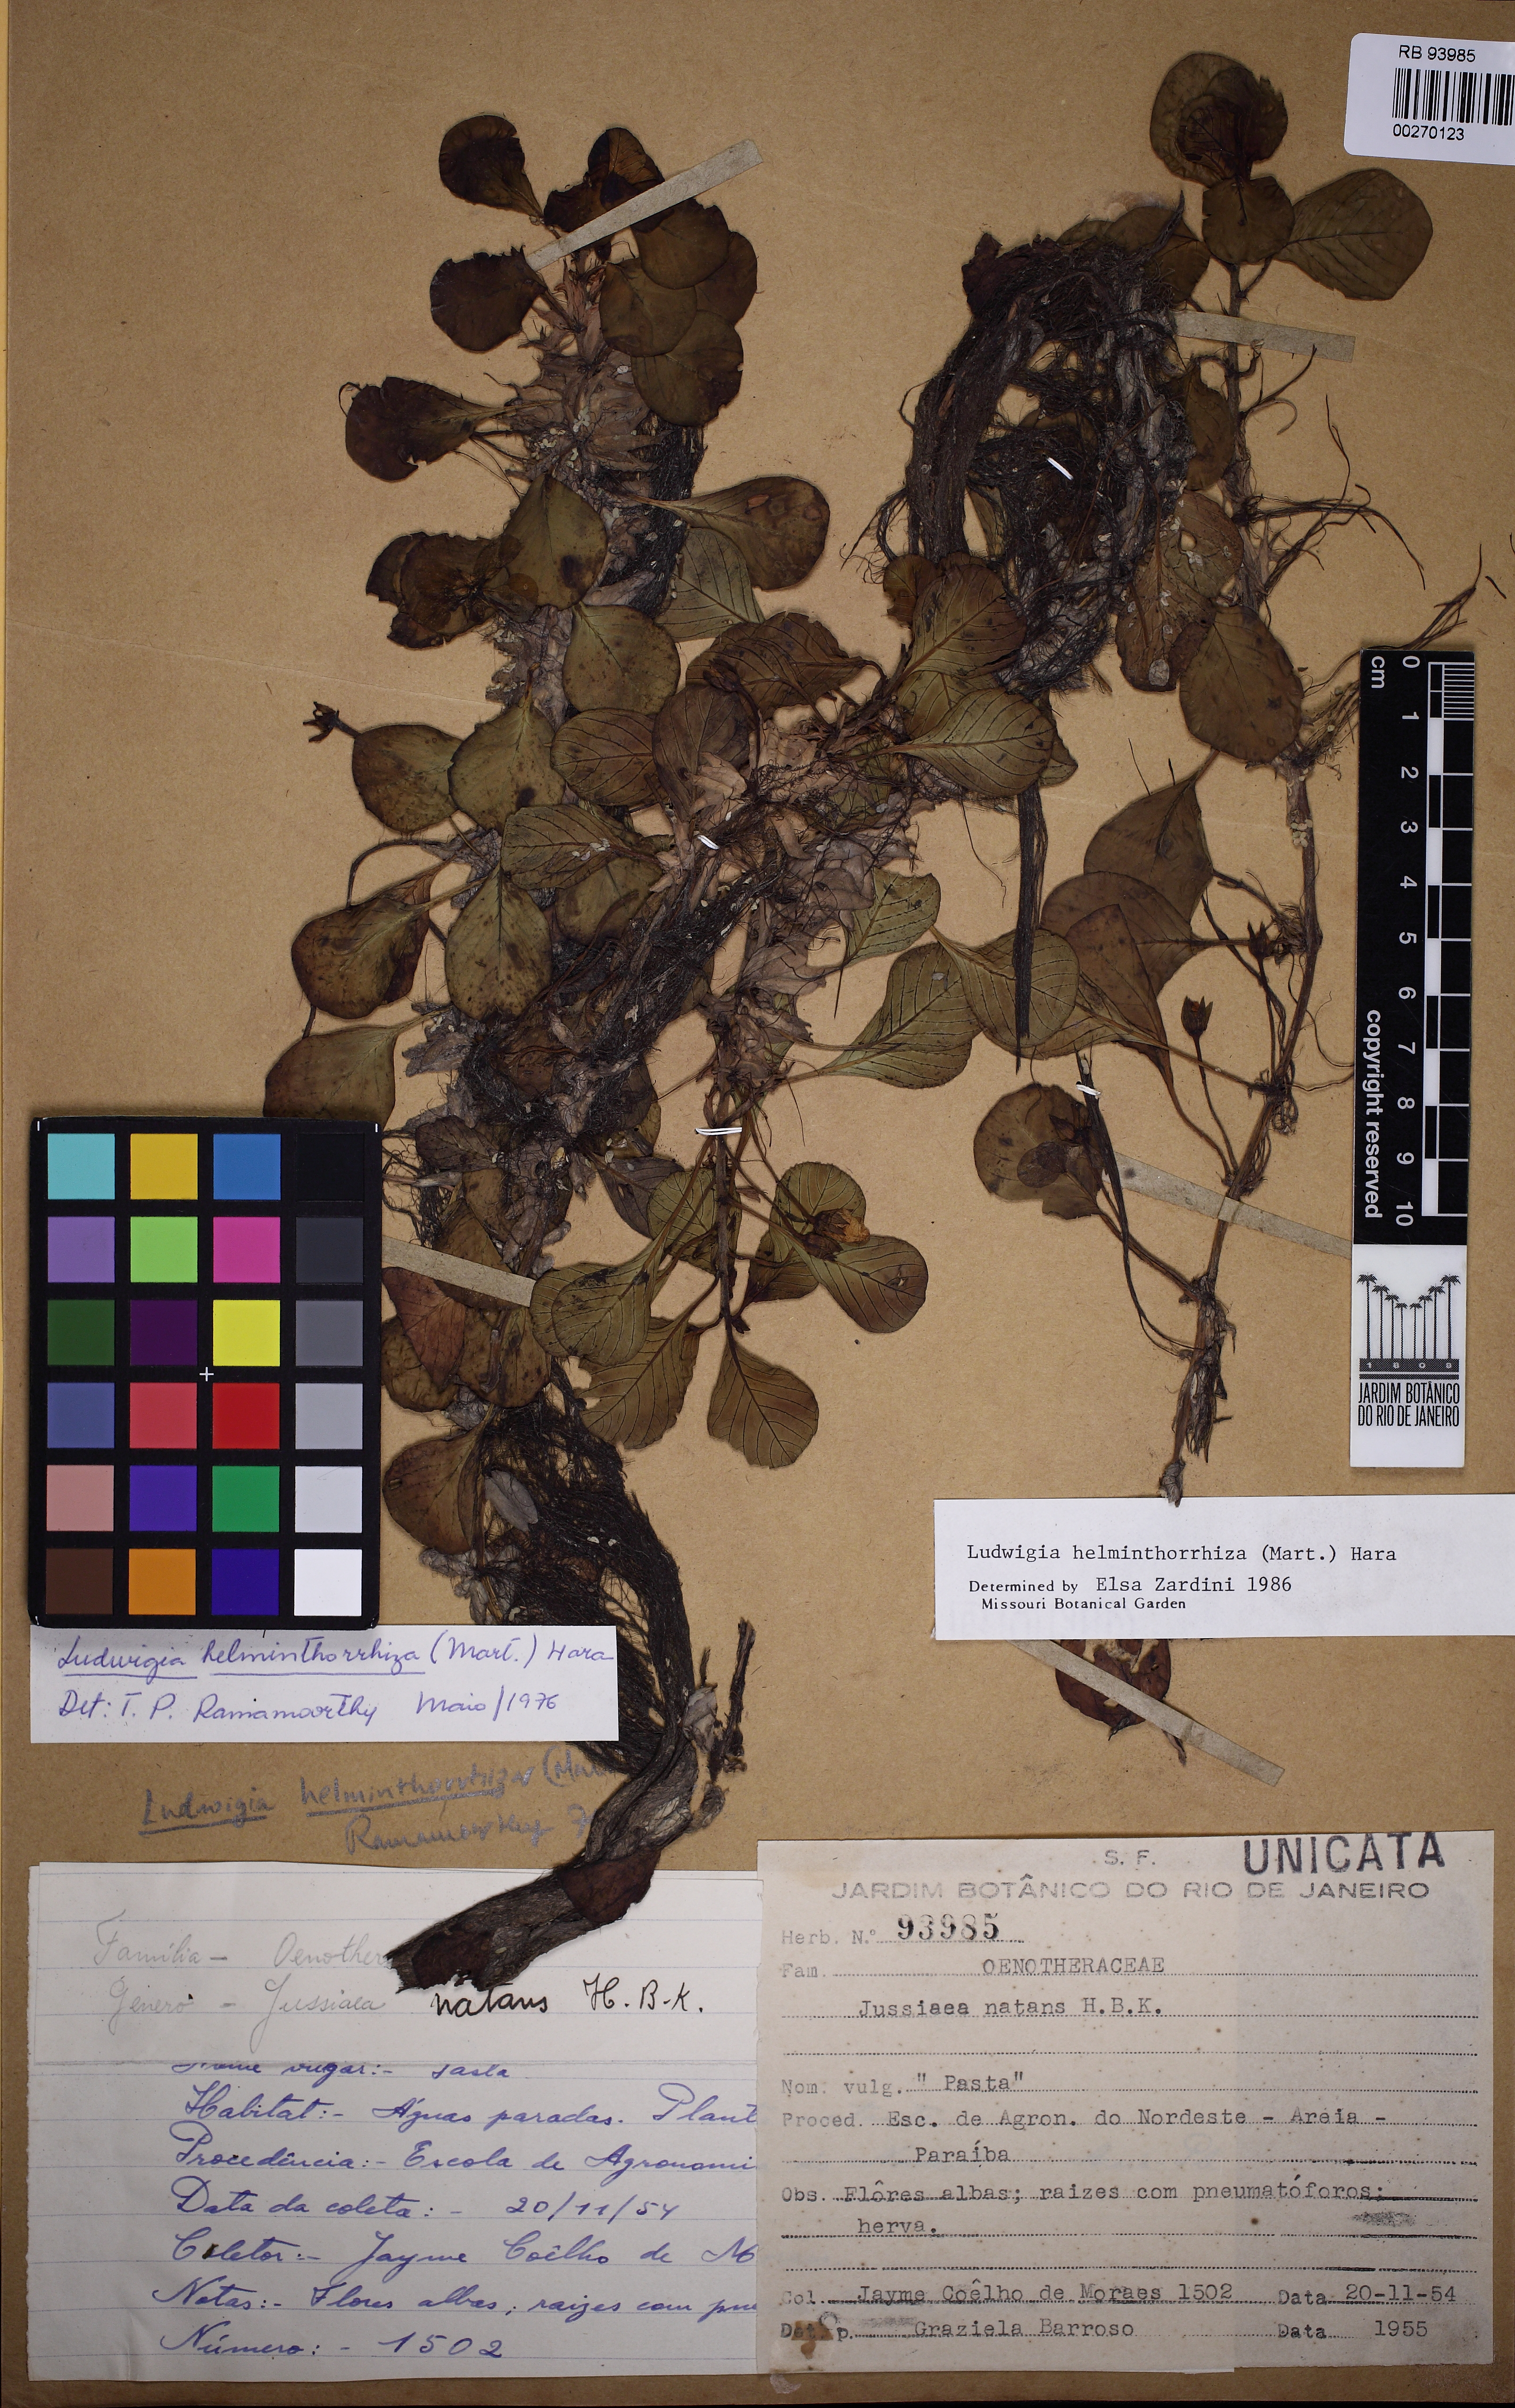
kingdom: Plantae
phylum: Tracheophyta
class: Magnoliopsida
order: Myrtales
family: Onagraceae
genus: Ludwigia
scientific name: Ludwigia helminthorrhiza
